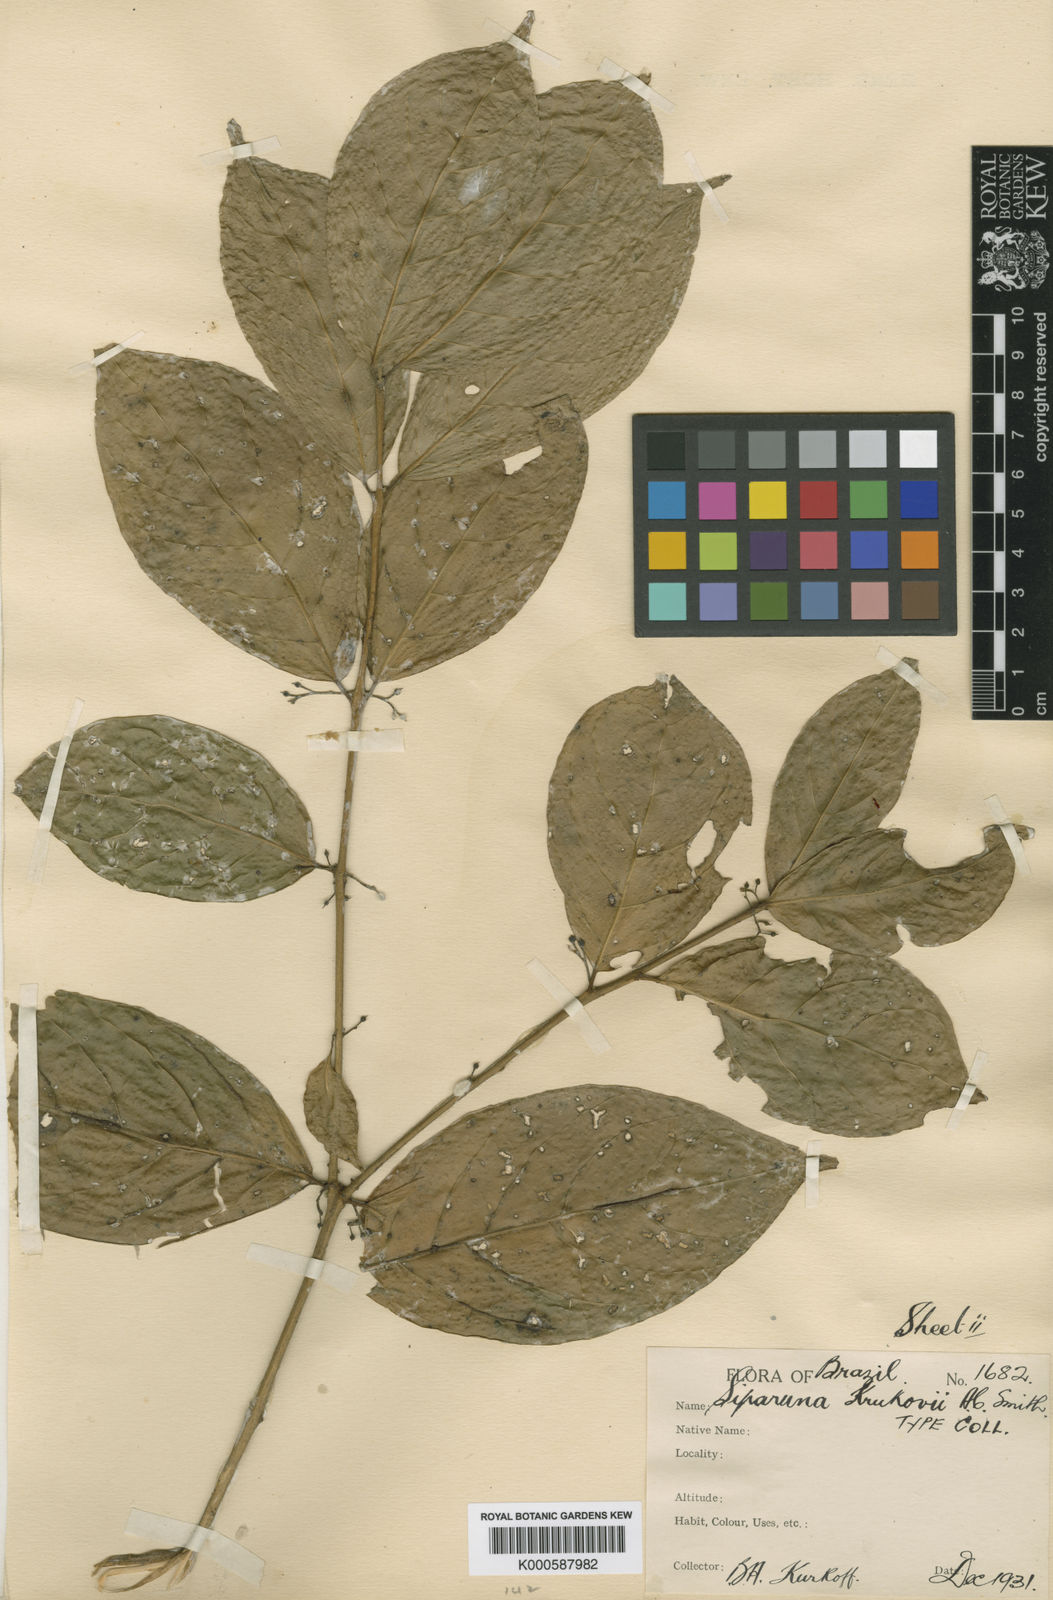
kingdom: Plantae
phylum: Tracheophyta
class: Magnoliopsida
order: Laurales
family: Siparunaceae
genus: Siparuna
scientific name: Siparuna krukovii
